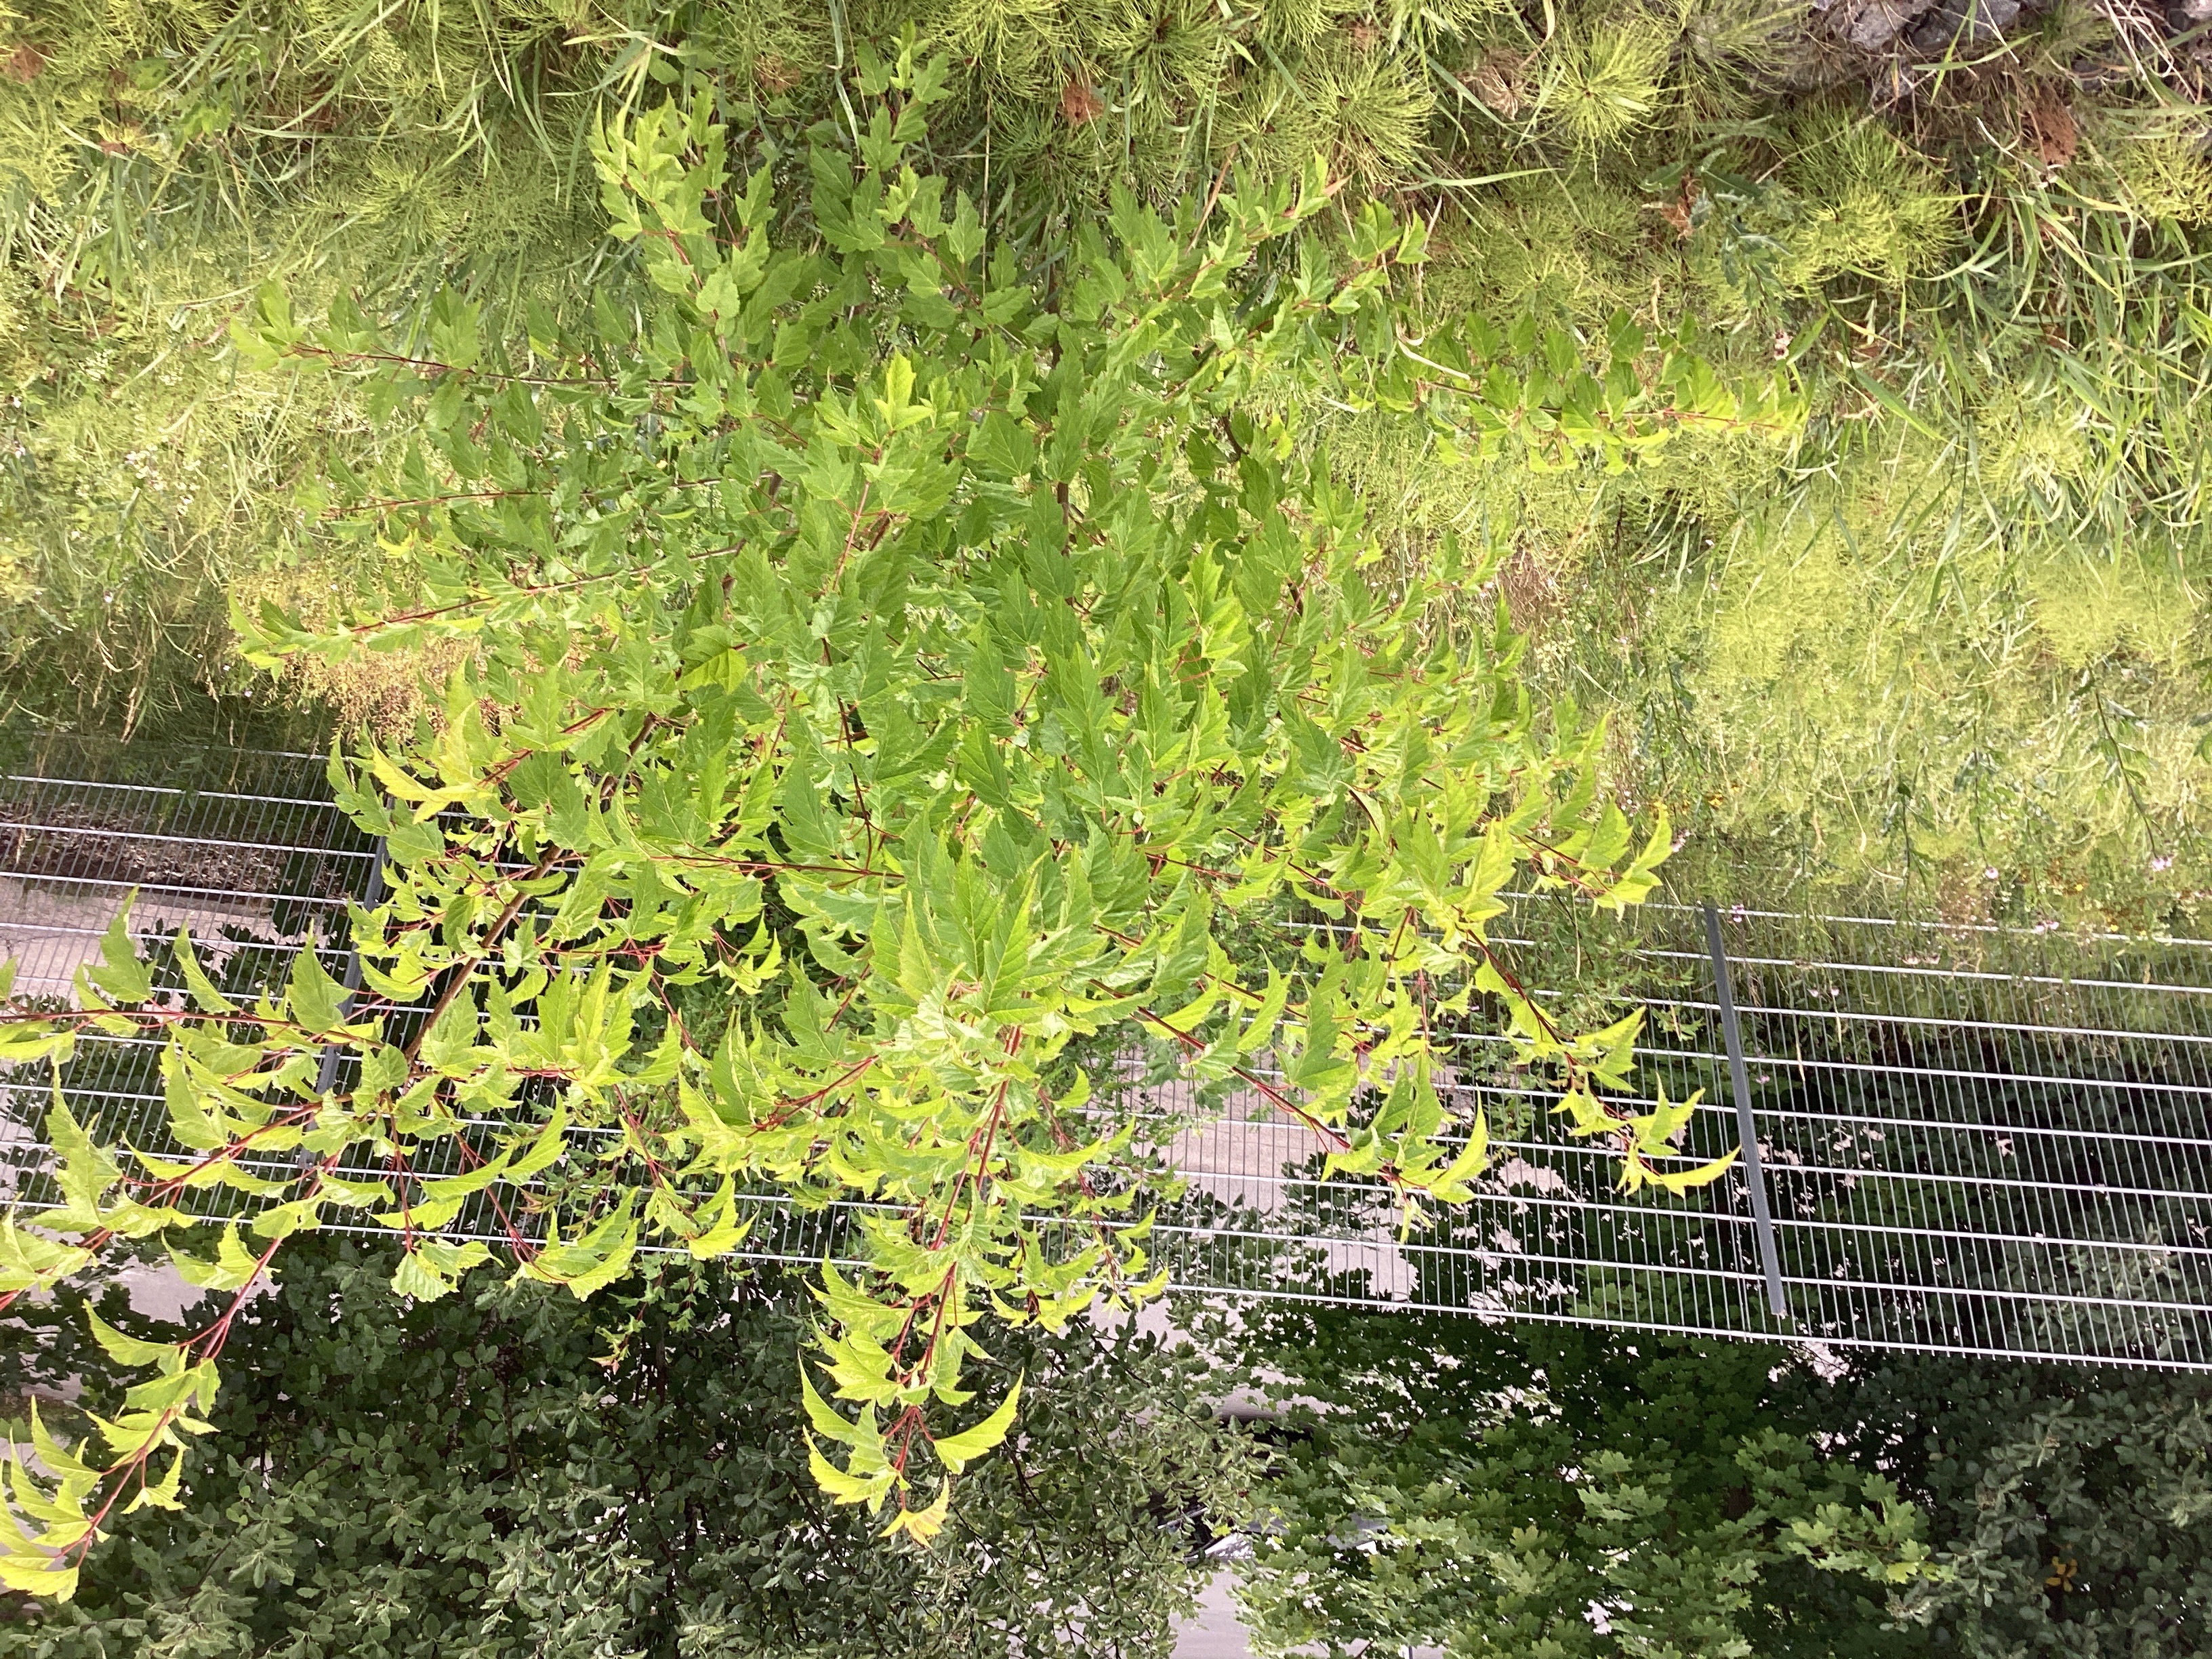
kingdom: Plantae
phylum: Tracheophyta
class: Magnoliopsida
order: Sapindales
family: Sapindaceae
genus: Acer
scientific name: Acer tataricum
